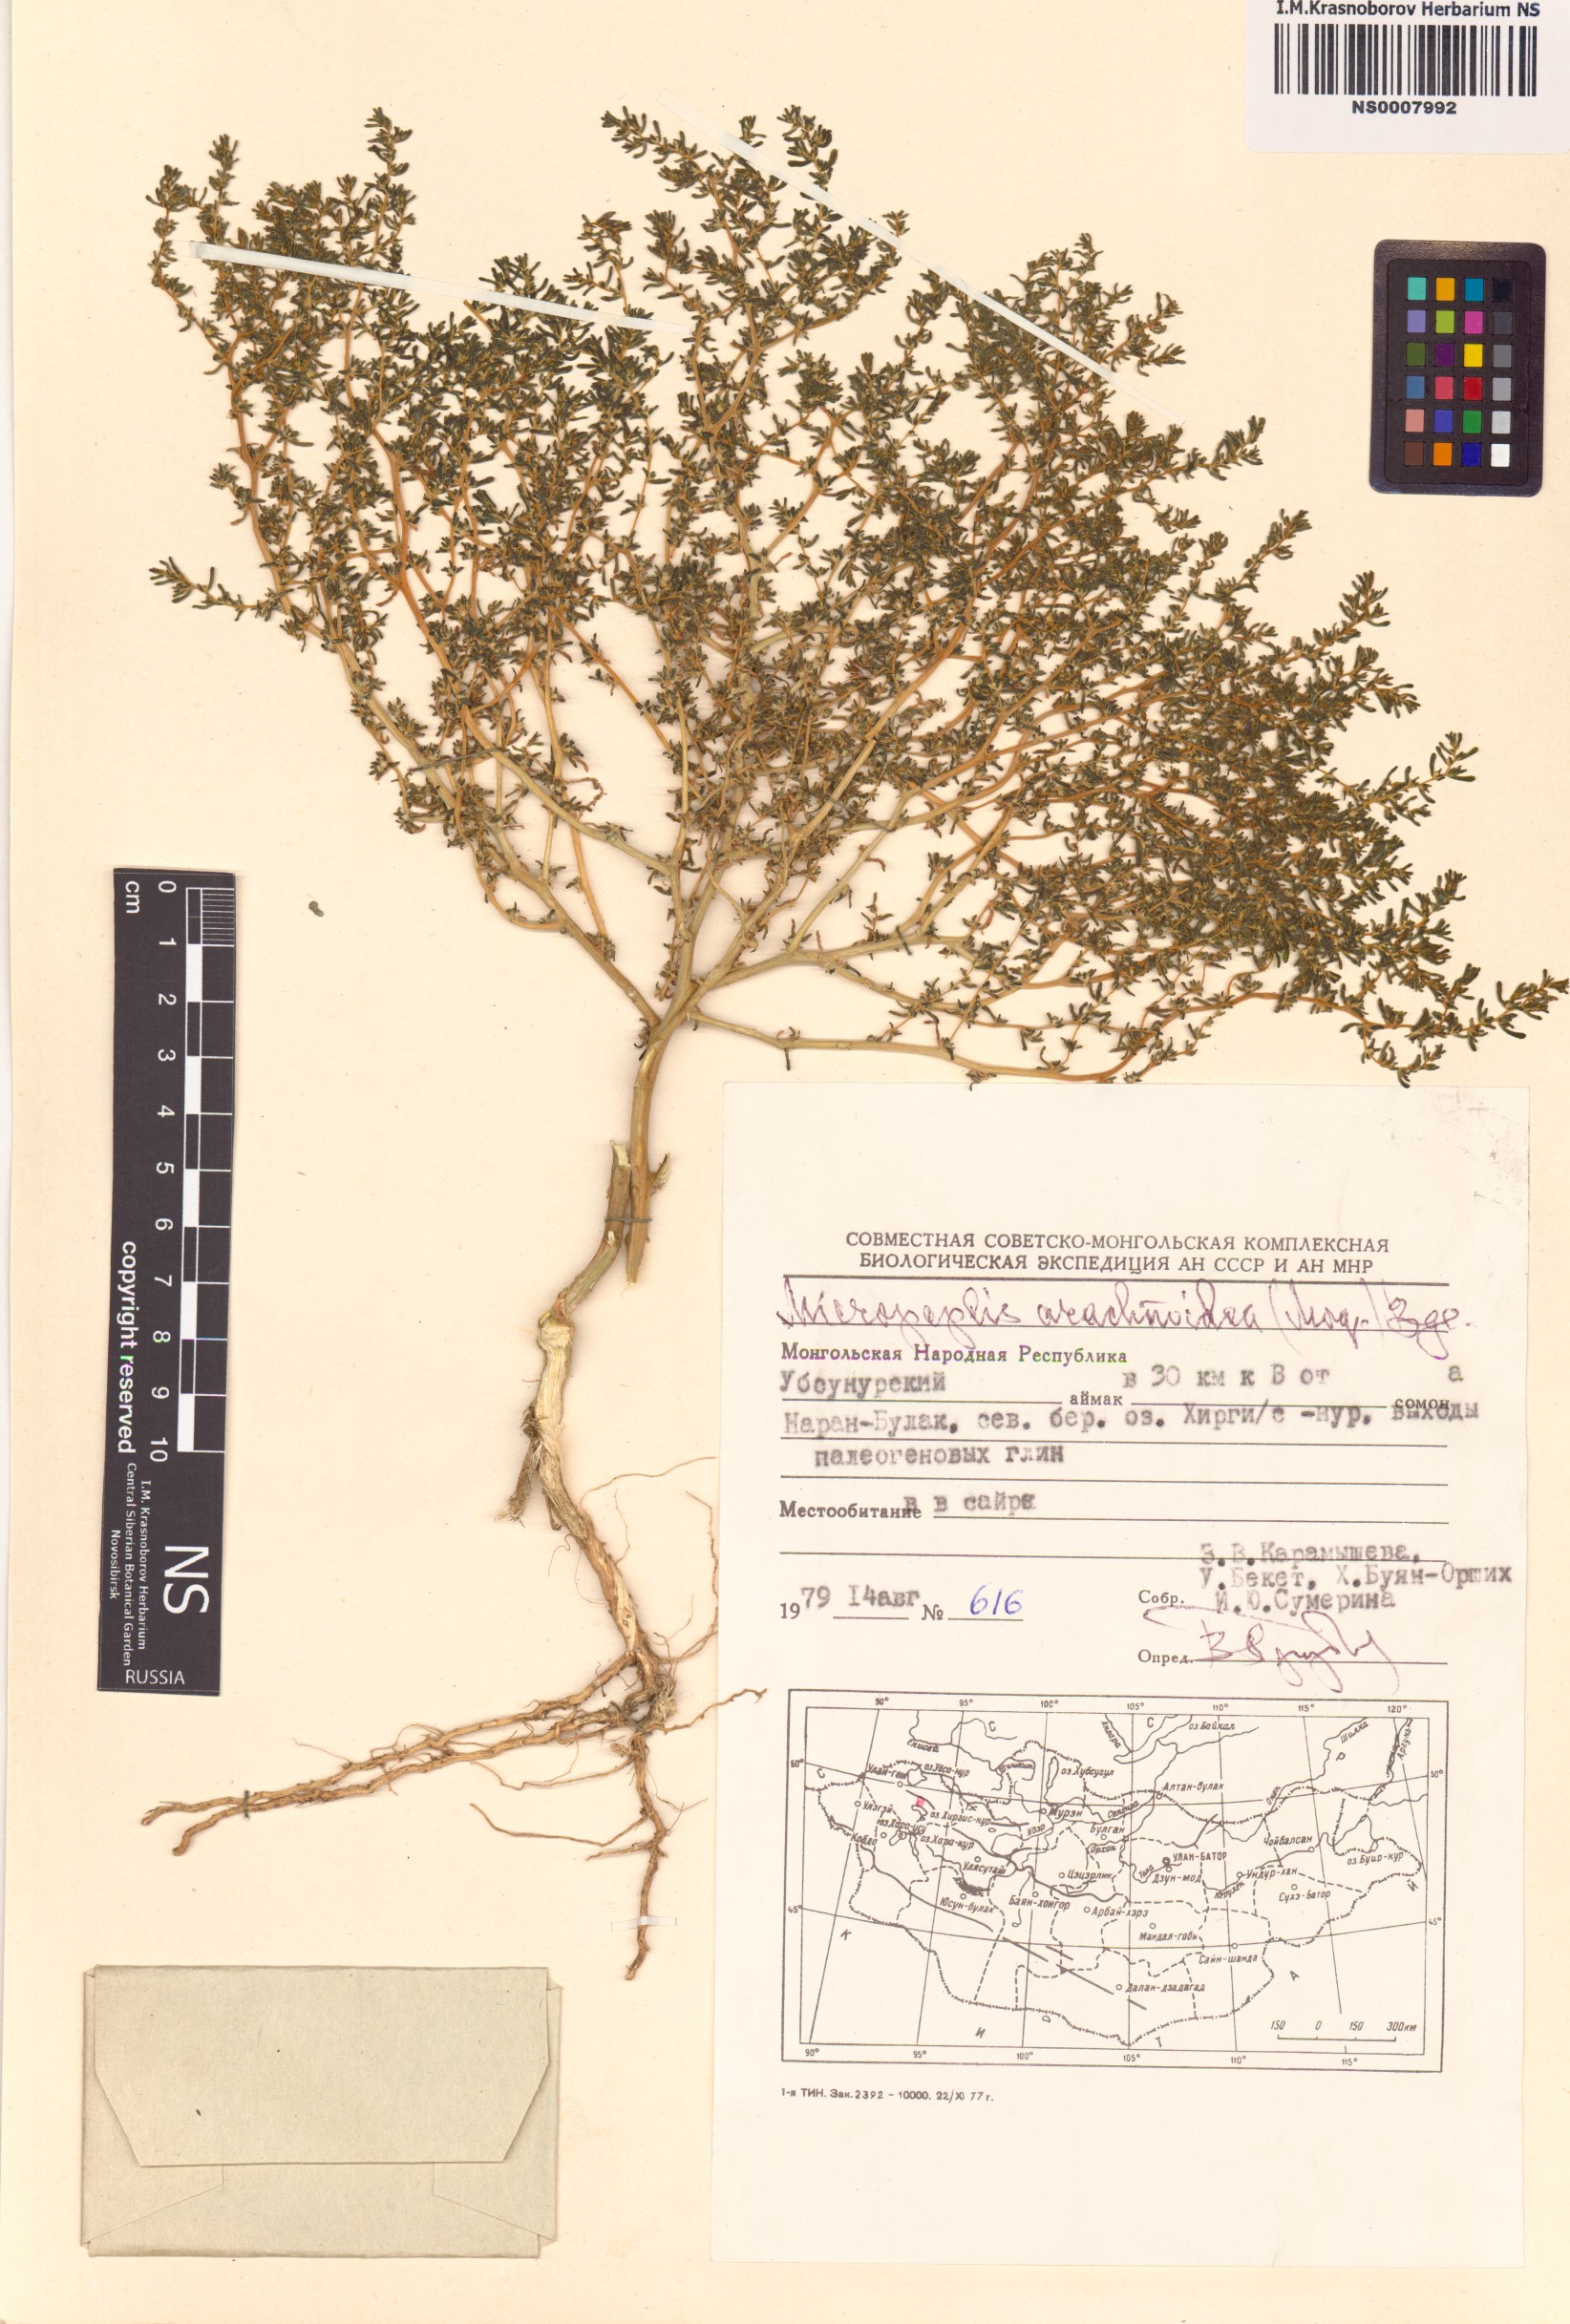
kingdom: Plantae
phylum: Tracheophyta
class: Magnoliopsida
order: Caryophyllales
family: Amaranthaceae
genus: Halogeton
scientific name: Halogeton arachnoideus
